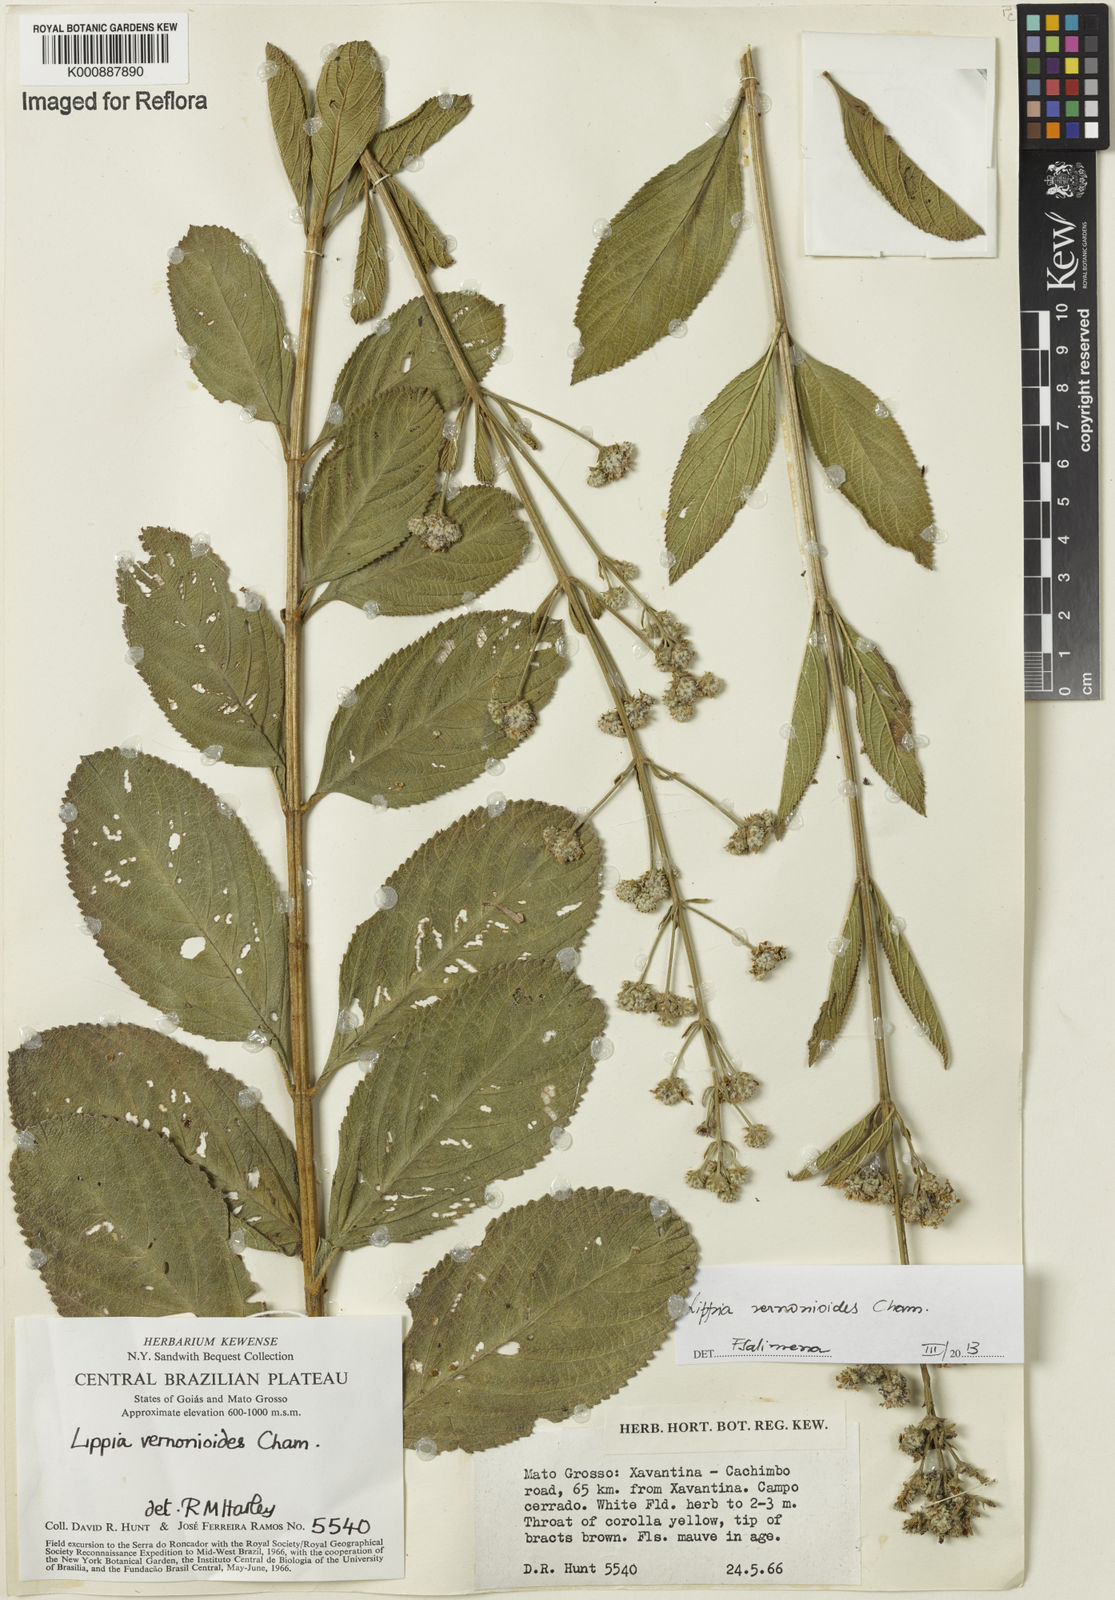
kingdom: Plantae
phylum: Tracheophyta
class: Magnoliopsida
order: Lamiales
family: Verbenaceae
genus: Lippia
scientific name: Lippia vernonioides
